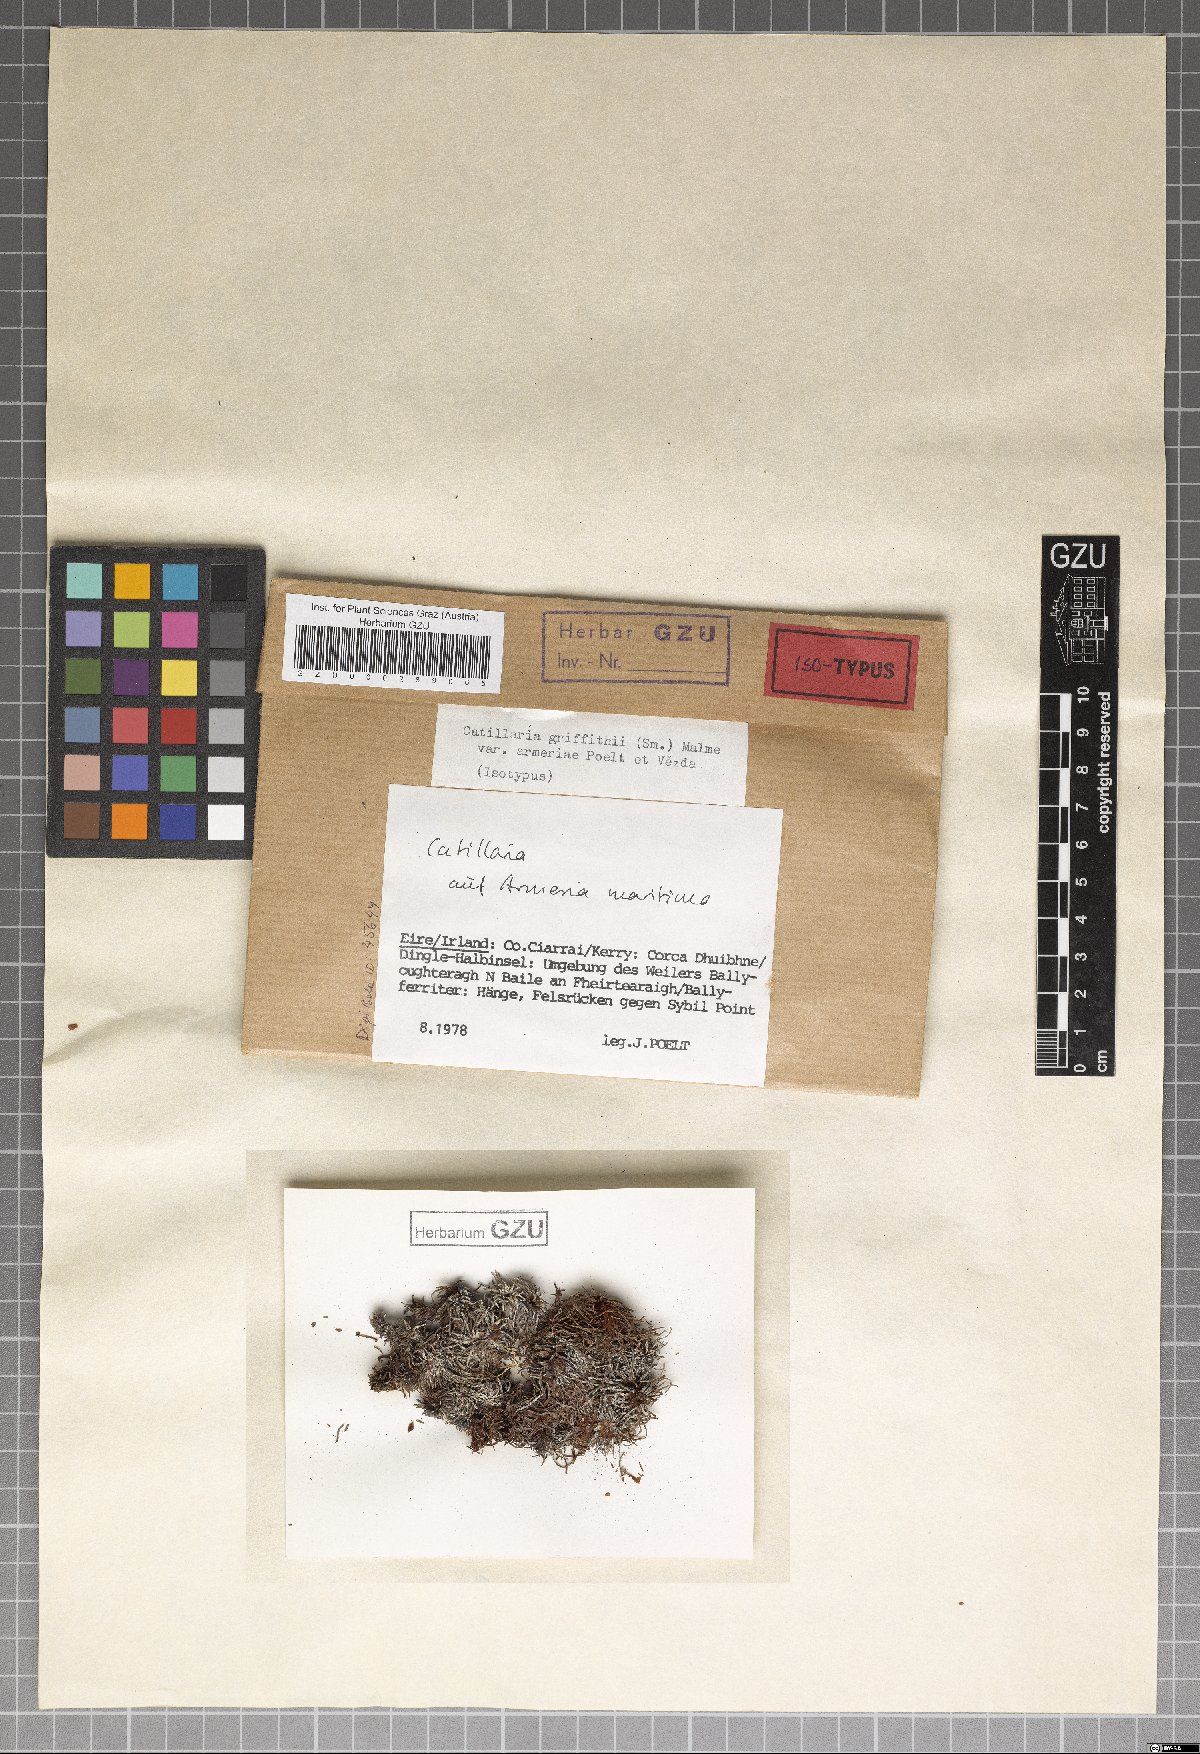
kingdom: Fungi
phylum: Ascomycota
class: Lecanoromycetes
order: Lecanorales
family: Ramalinaceae
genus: Cliostomum
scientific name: Cliostomum griffithii
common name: Multicolored dot lichen
